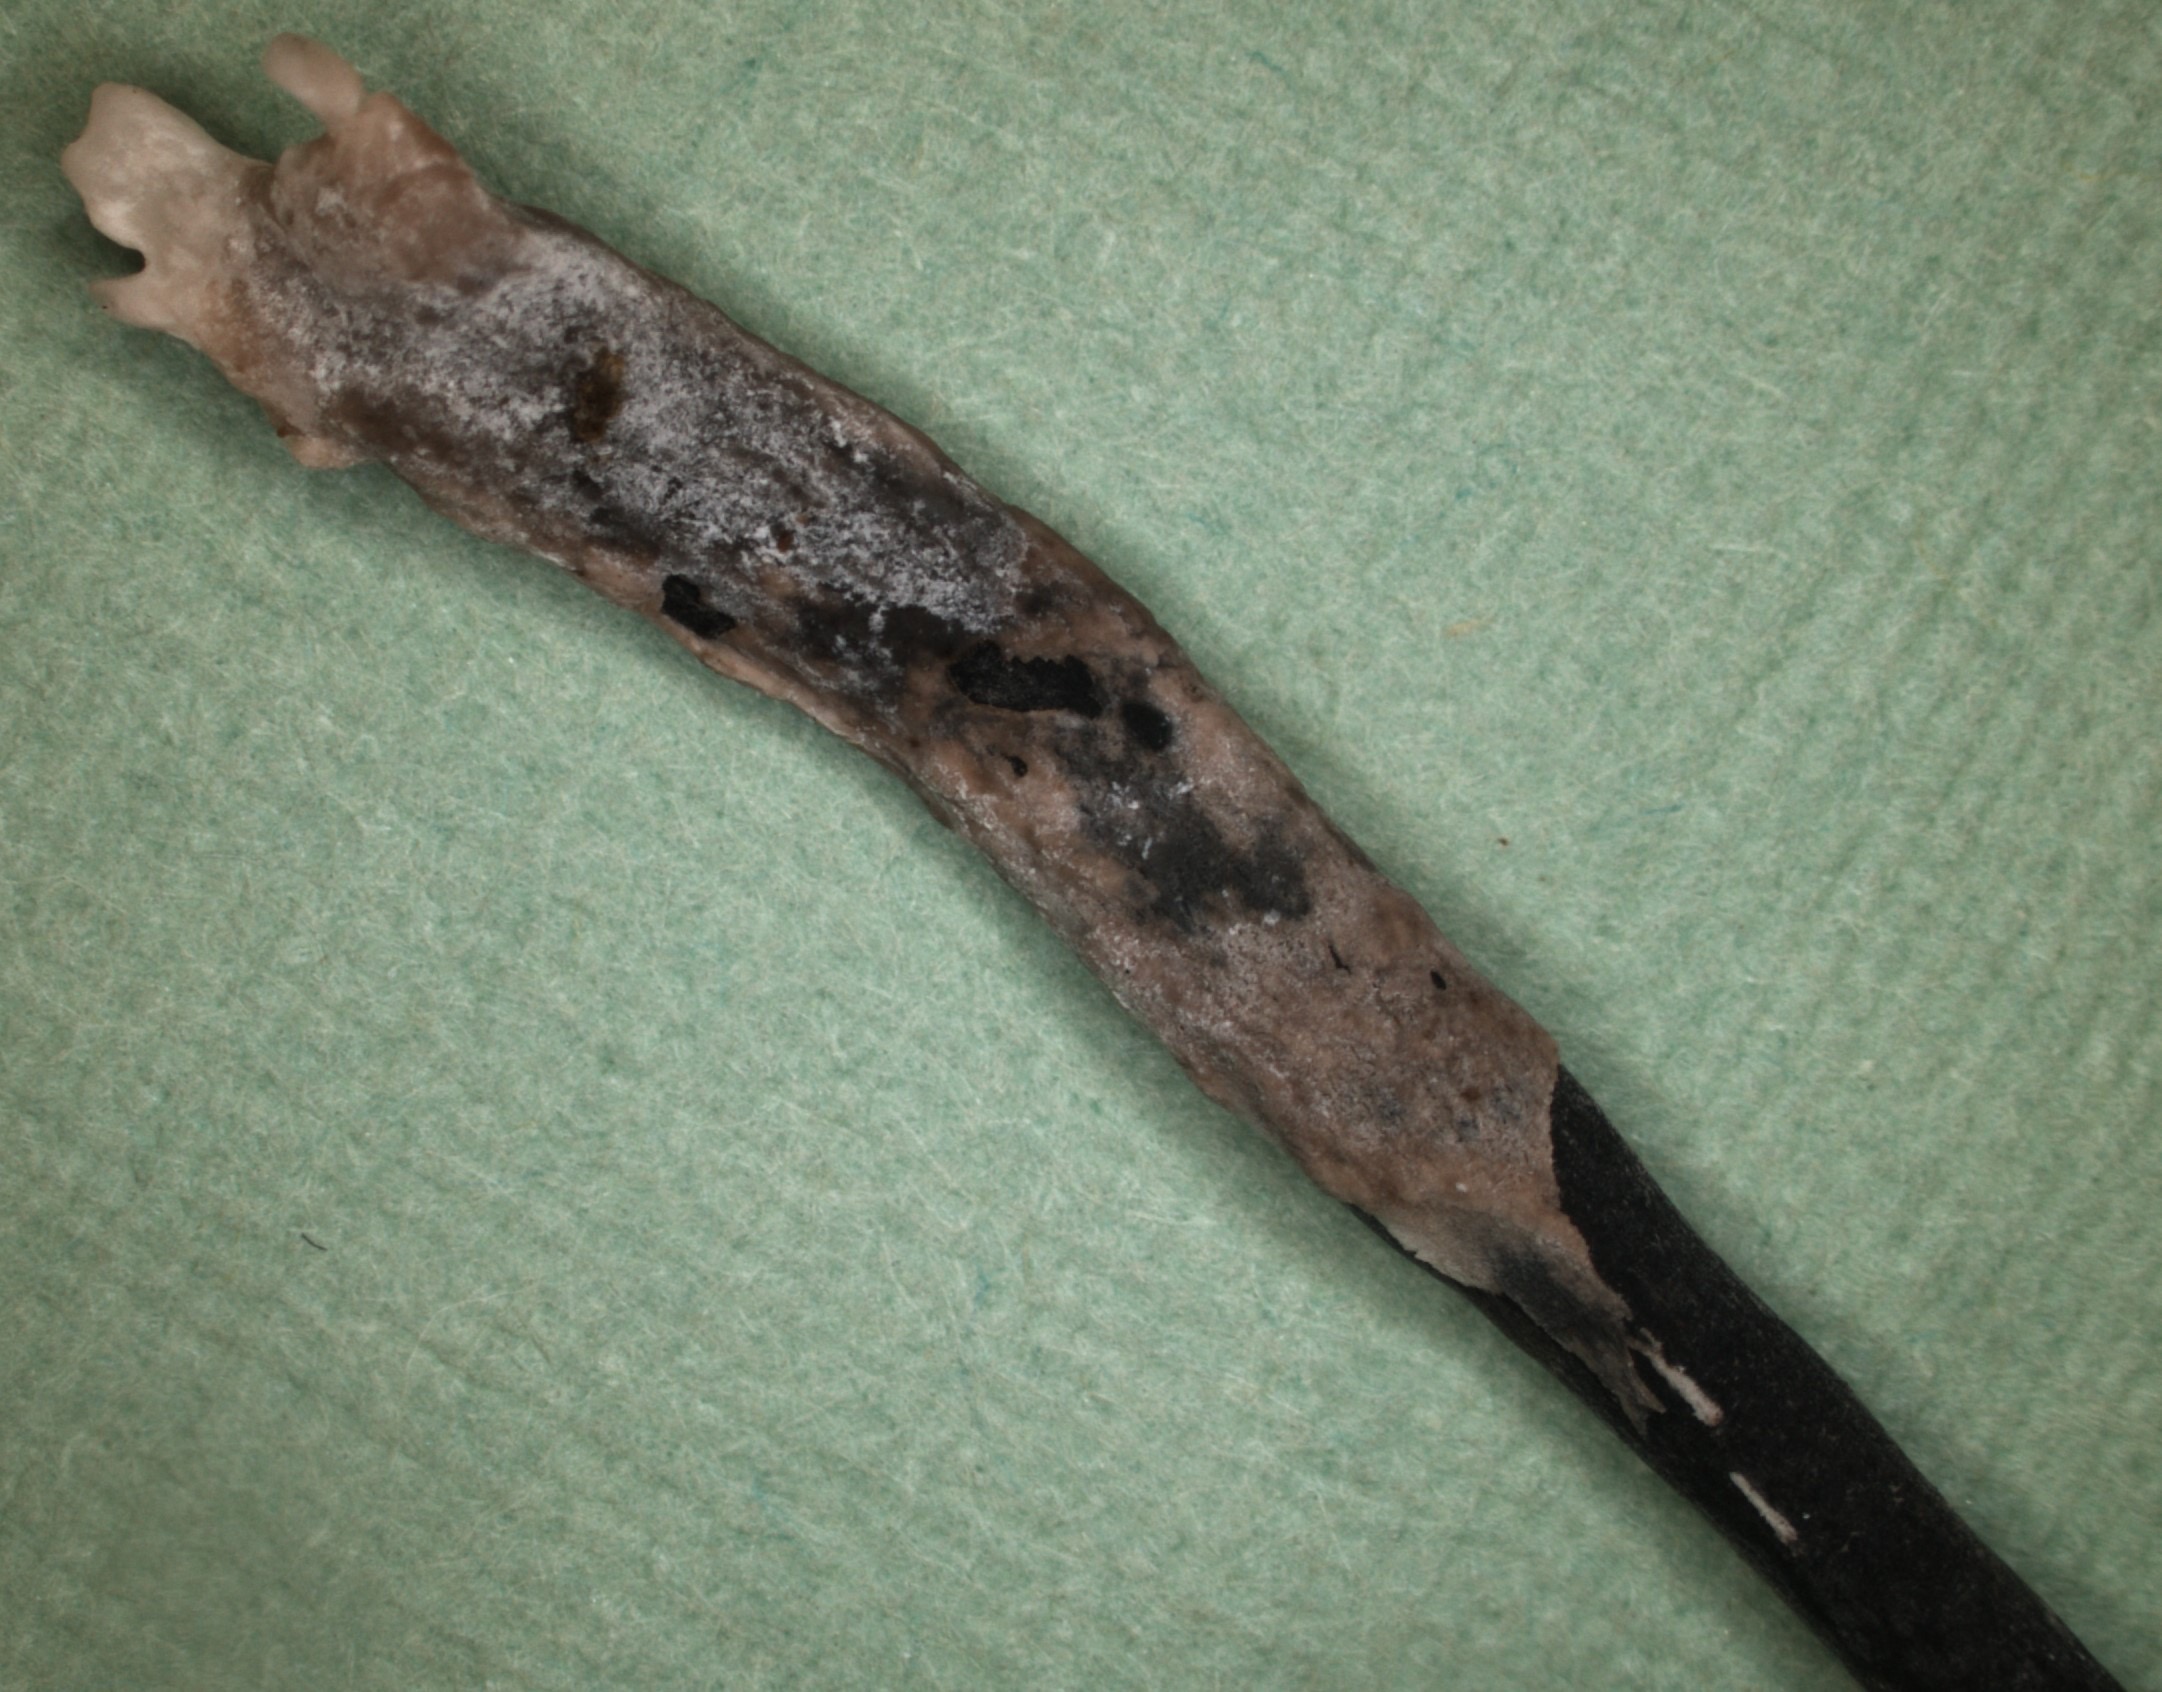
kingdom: Fungi
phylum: Ascomycota
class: Sordariomycetes
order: Xylariales
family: Xylariaceae
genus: Xylaria
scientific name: Xylaria hypoxylon
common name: grenet stødsvamp
